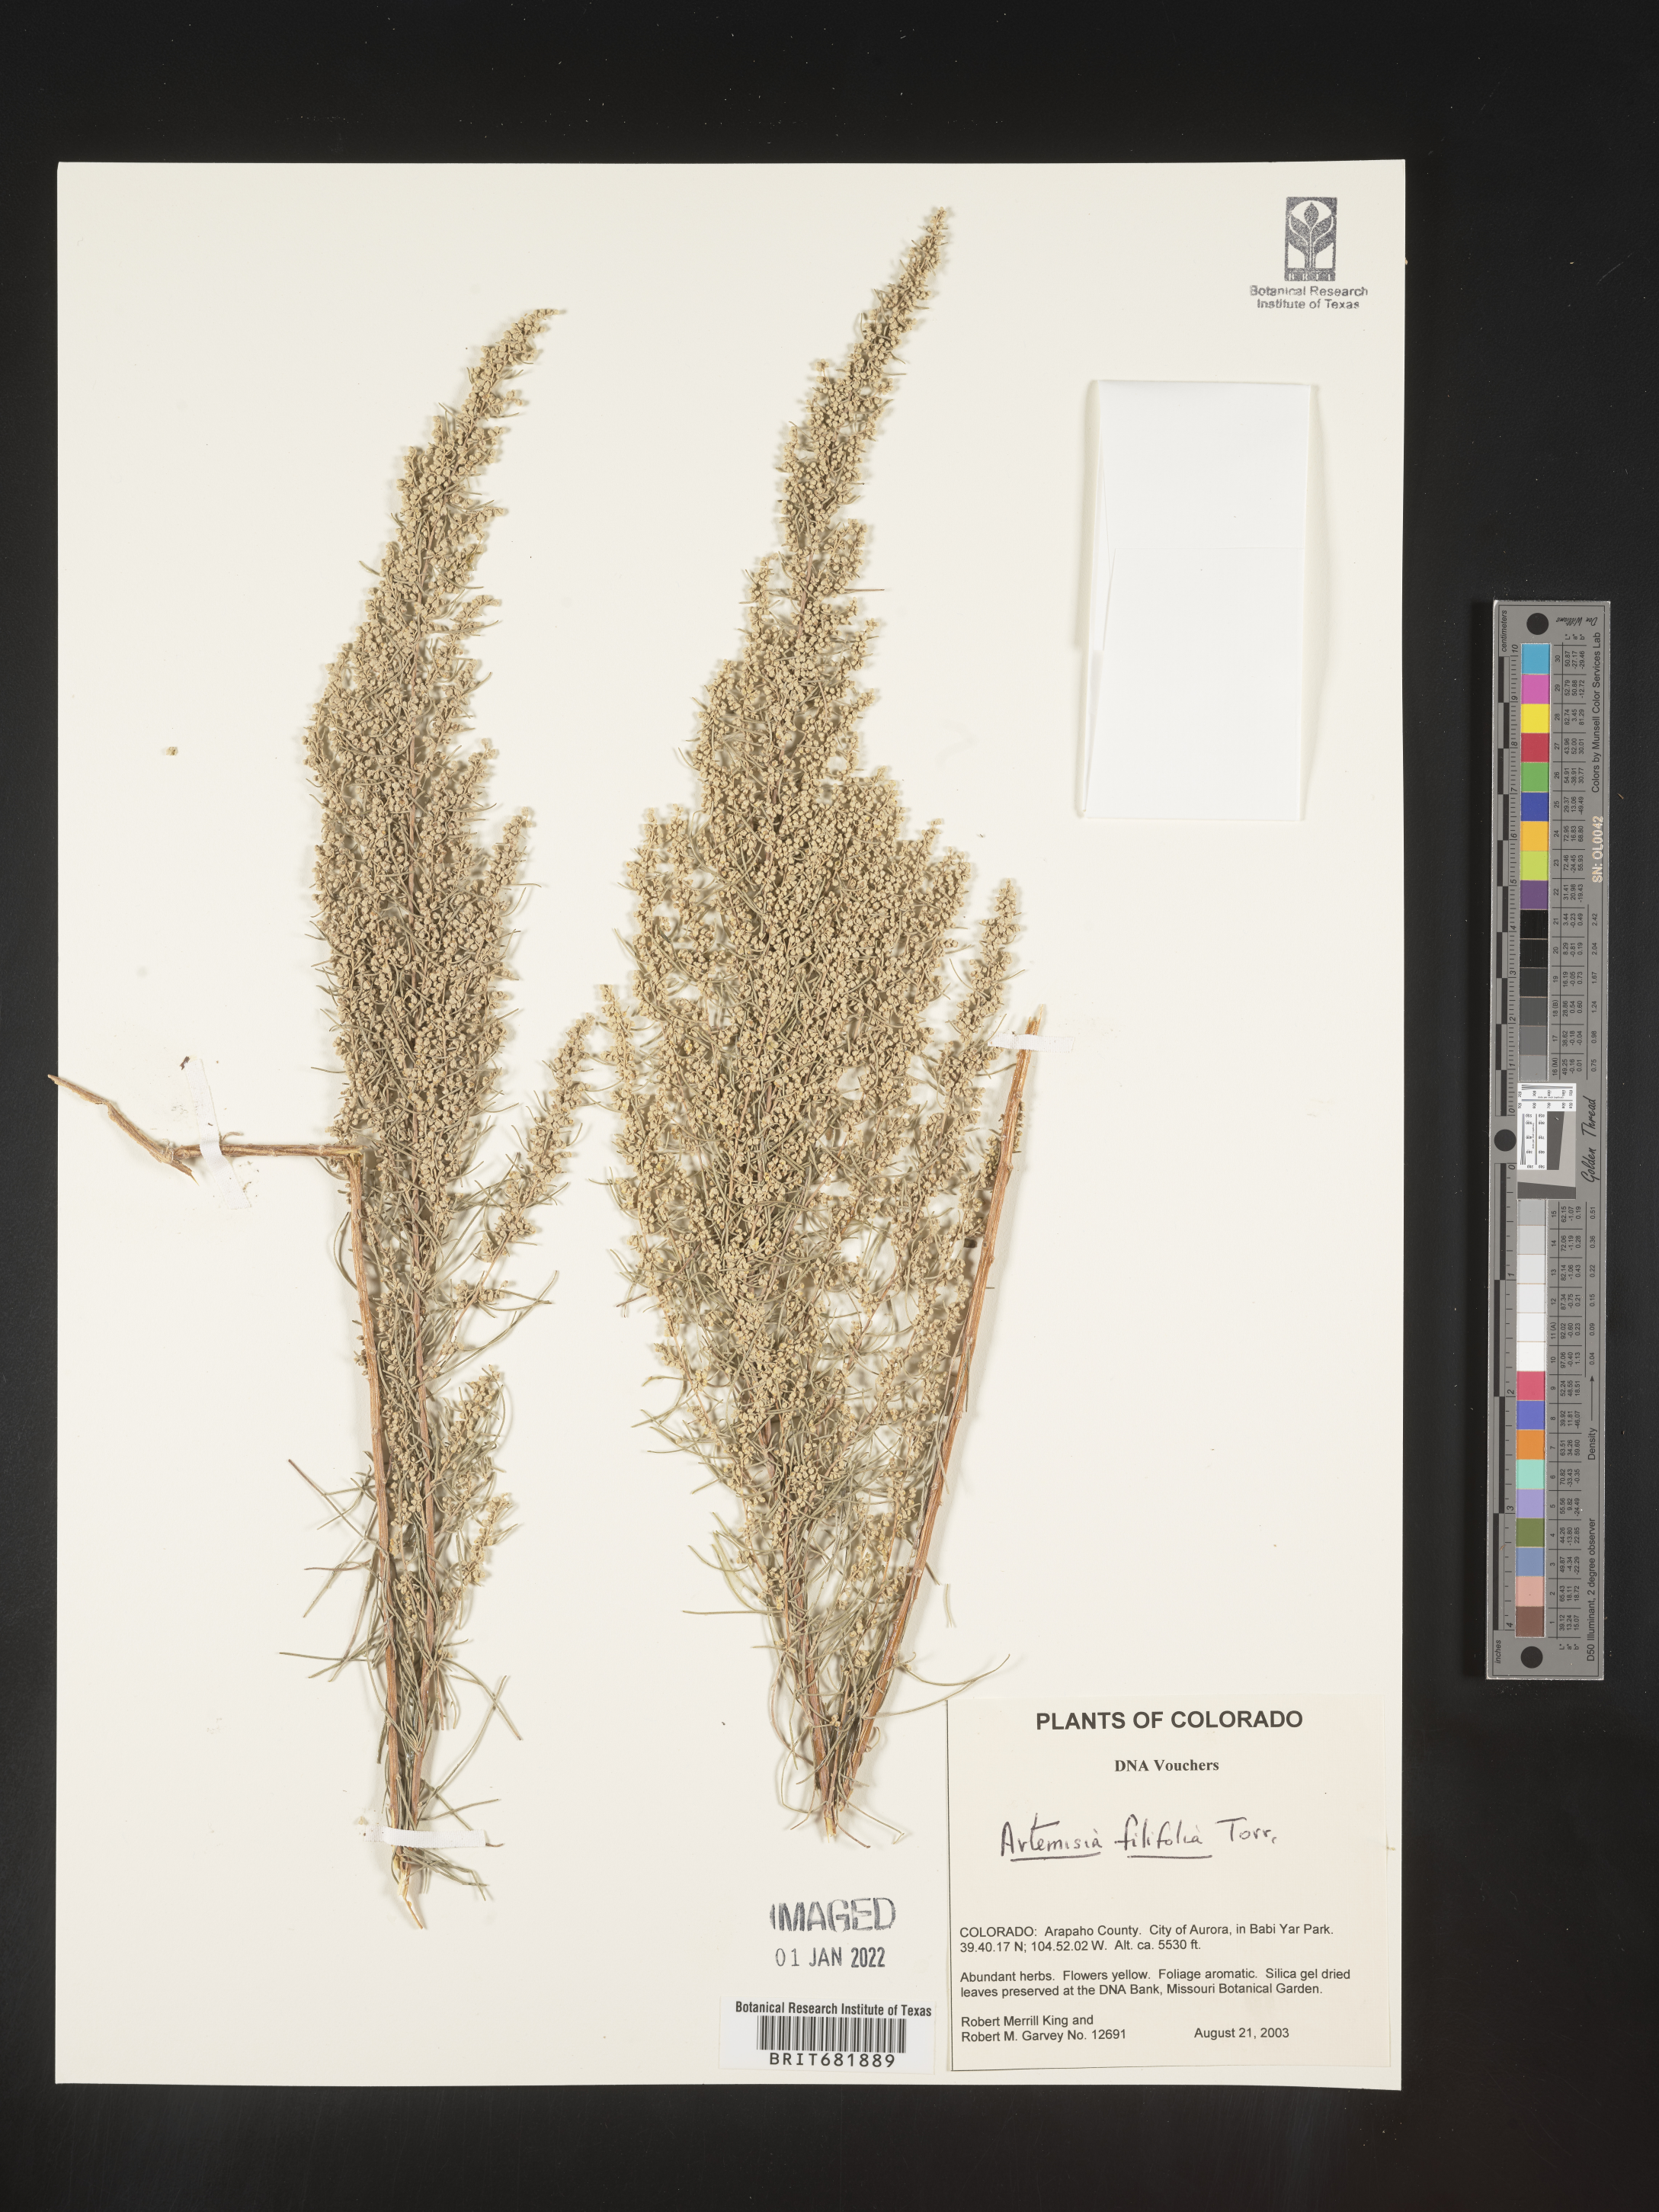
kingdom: Plantae
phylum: Tracheophyta
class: Magnoliopsida
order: Asterales
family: Asteraceae
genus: Artemisia
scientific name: Artemisia filifolia
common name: Sand-sage
